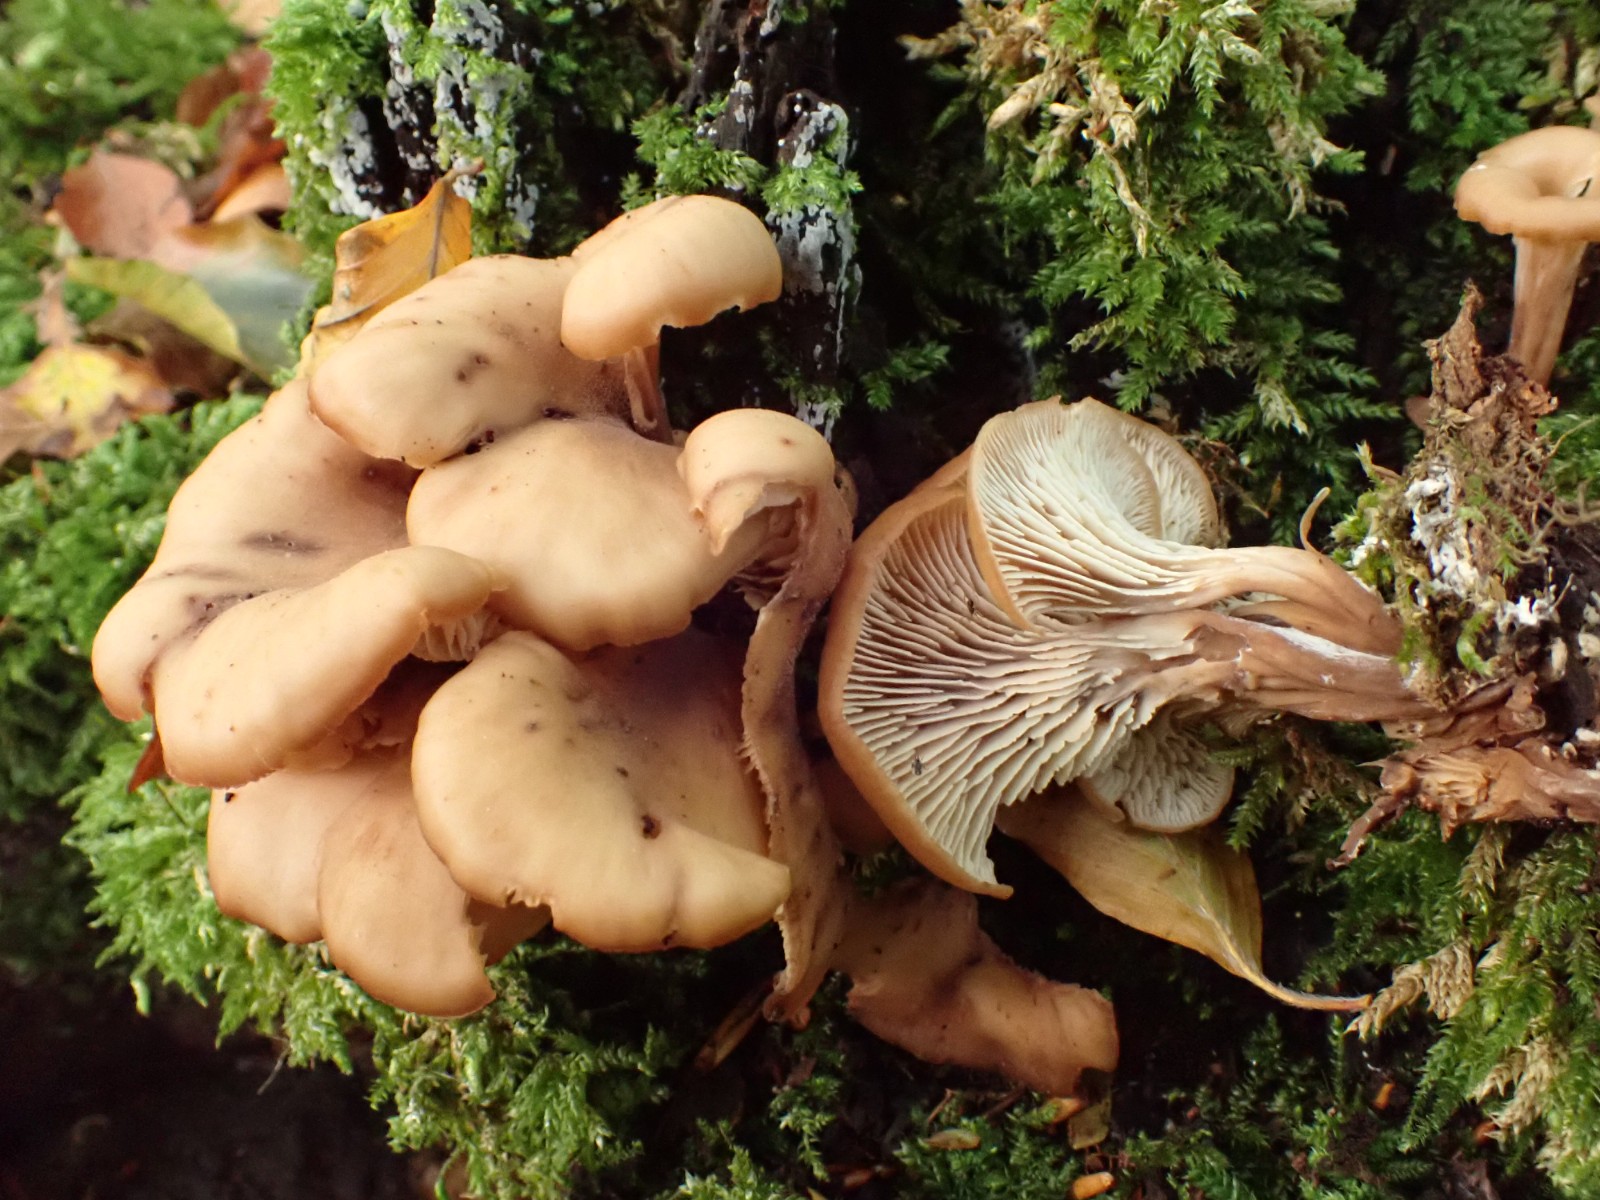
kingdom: Fungi
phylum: Basidiomycota
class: Agaricomycetes
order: Russulales
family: Auriscalpiaceae
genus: Lentinellus
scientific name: Lentinellus cochleatus
